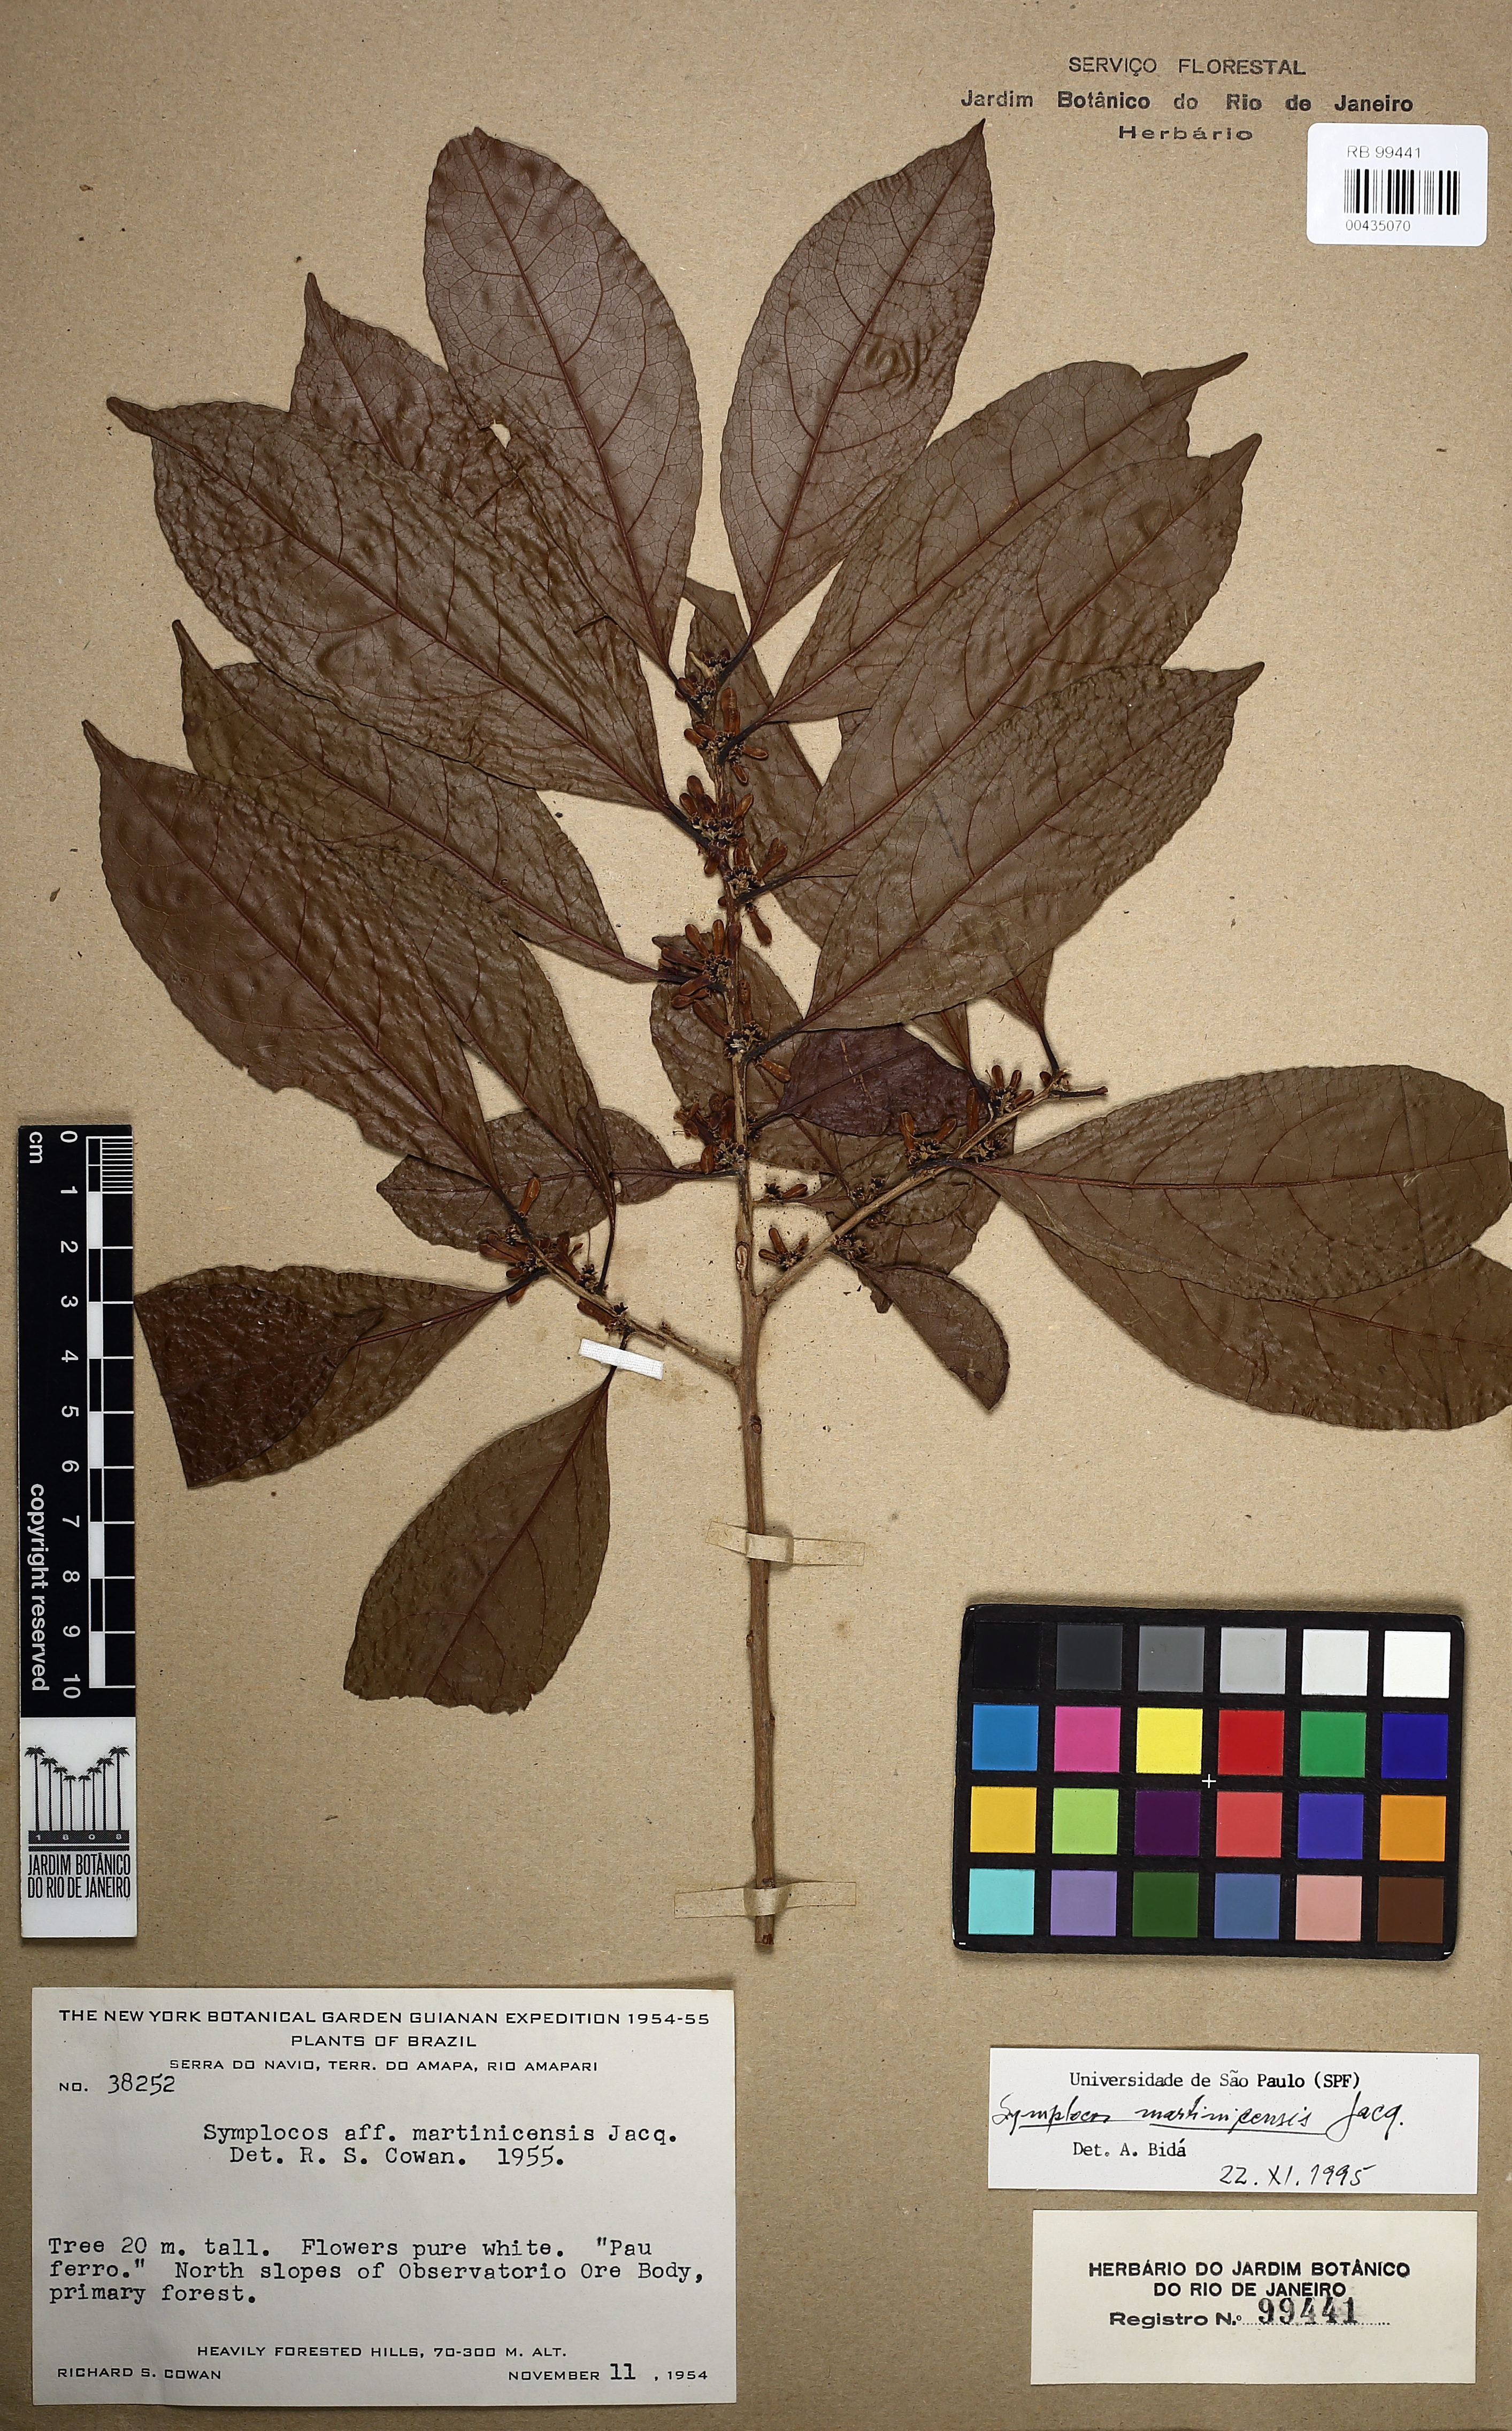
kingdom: Plantae
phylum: Tracheophyta
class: Magnoliopsida
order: Ericales
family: Symplocaceae
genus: Symplocos
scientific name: Symplocos martinicensis
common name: Blueberry
